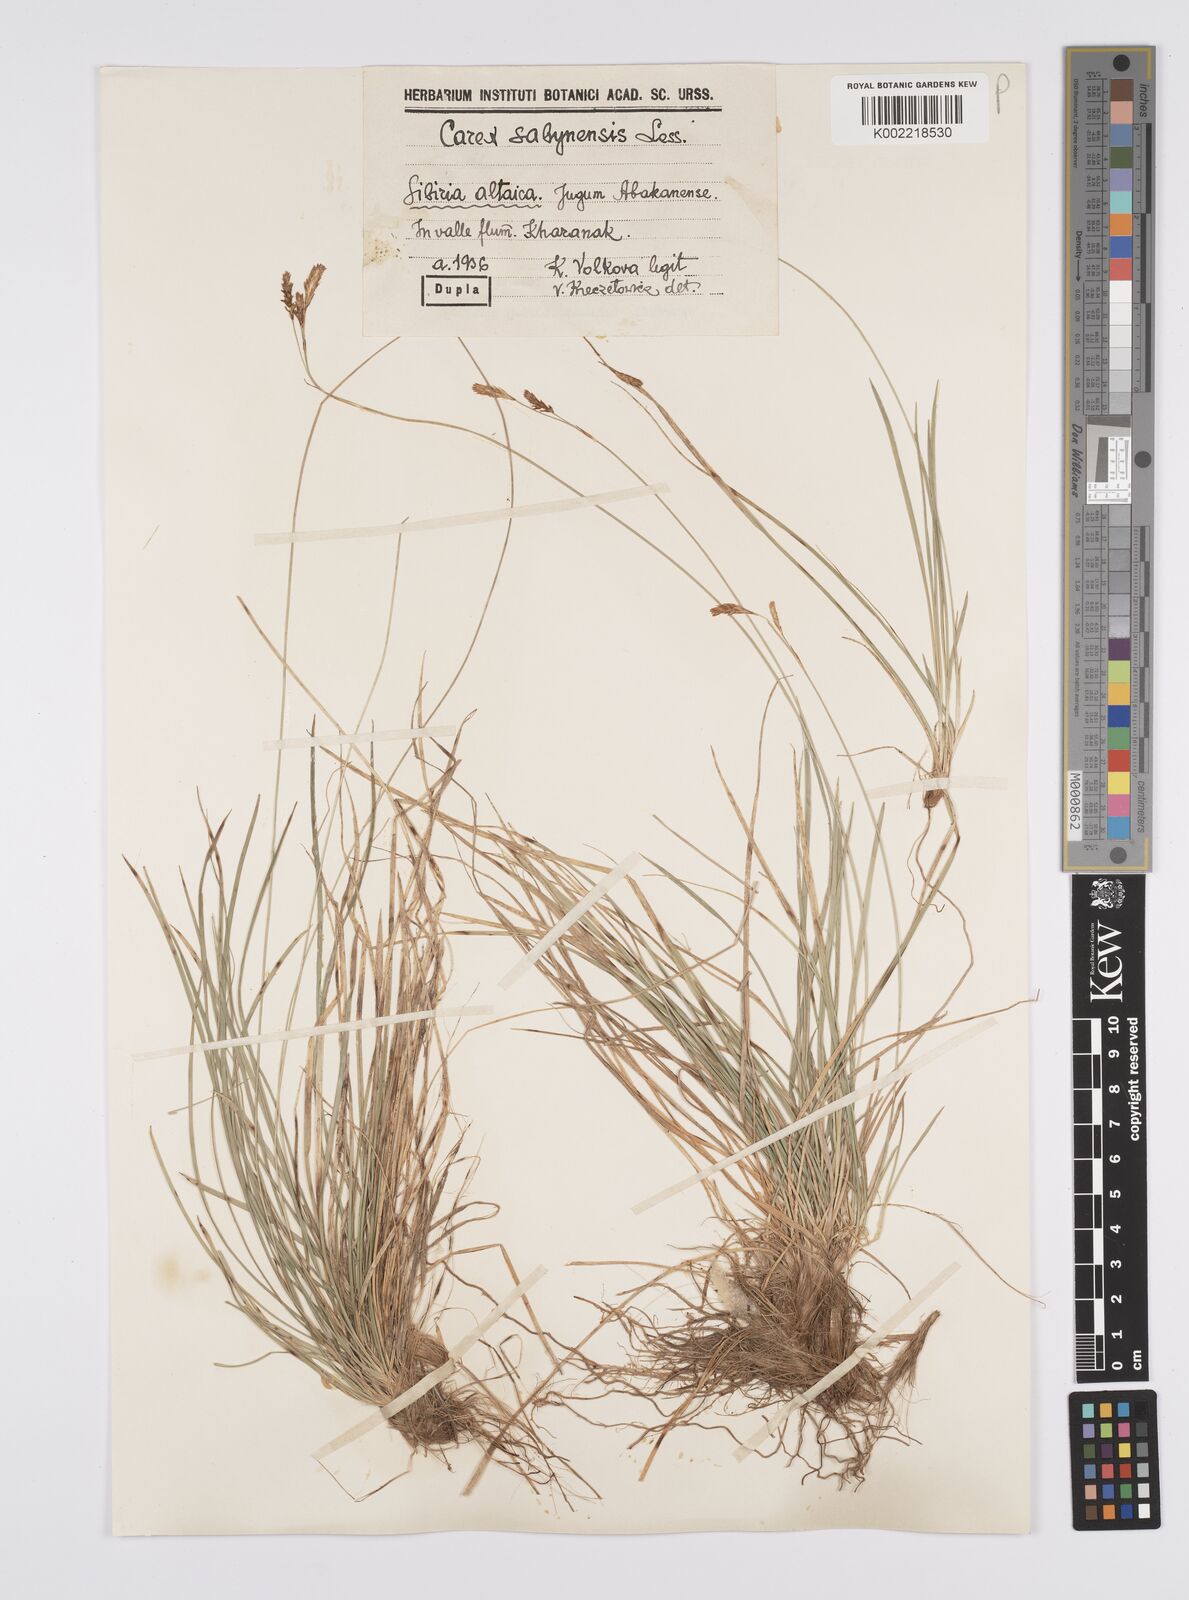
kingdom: Plantae
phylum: Tracheophyta
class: Liliopsida
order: Poales
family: Cyperaceae
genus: Carex
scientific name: Carex umbrosa
